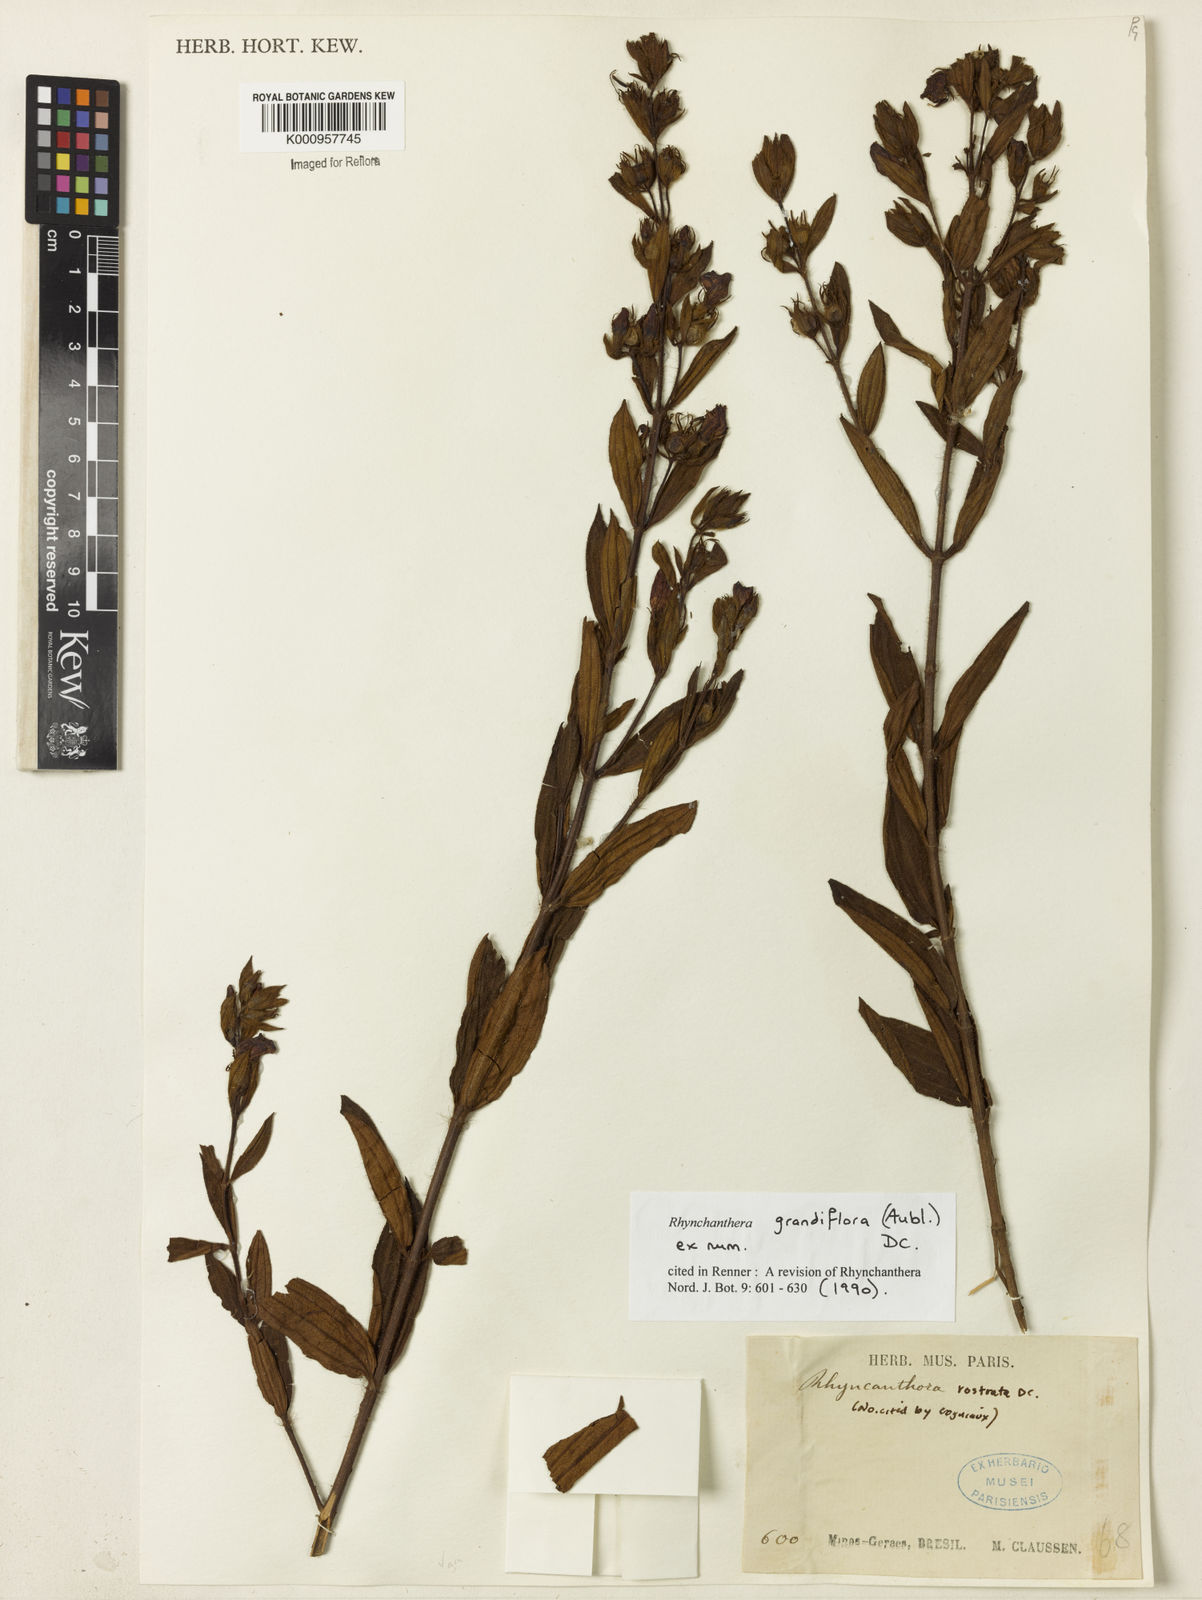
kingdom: Plantae
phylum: Tracheophyta
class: Magnoliopsida
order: Myrtales
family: Melastomataceae
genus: Rhynchanthera
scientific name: Rhynchanthera grandiflora
